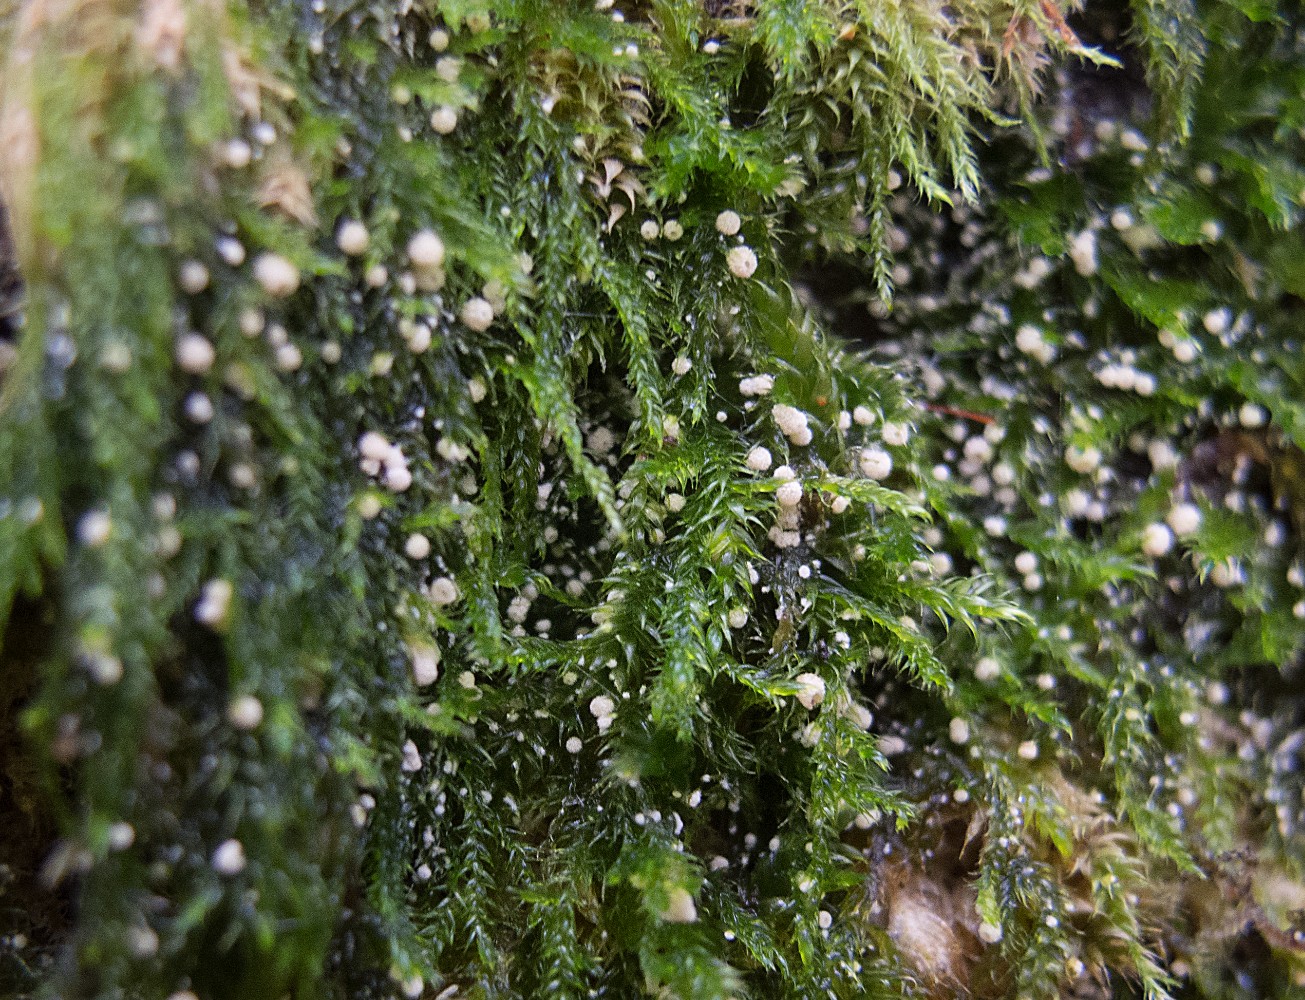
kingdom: Fungi
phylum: Basidiomycota
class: Agaricomycetes
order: Agaricales
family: Chromocyphellaceae
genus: Chromocyphella
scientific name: Chromocyphella muscicola
